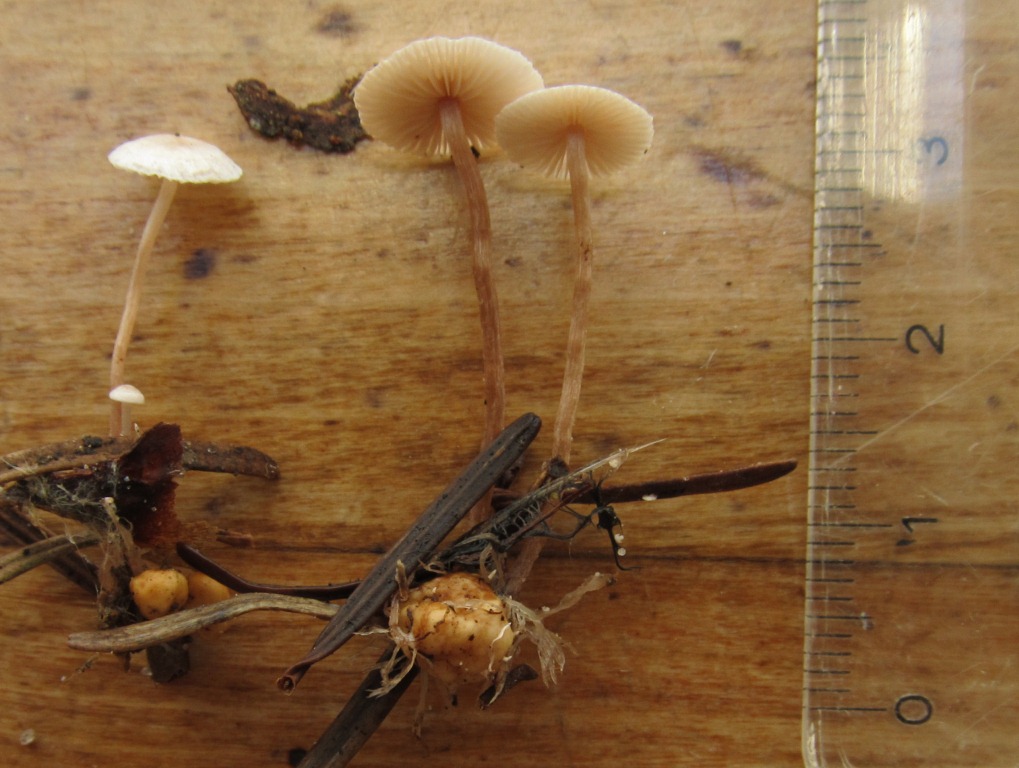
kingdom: Fungi
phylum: Basidiomycota
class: Agaricomycetes
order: Agaricales
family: Tricholomataceae
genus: Collybia
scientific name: Collybia cookei
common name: gulknoldet lighat
